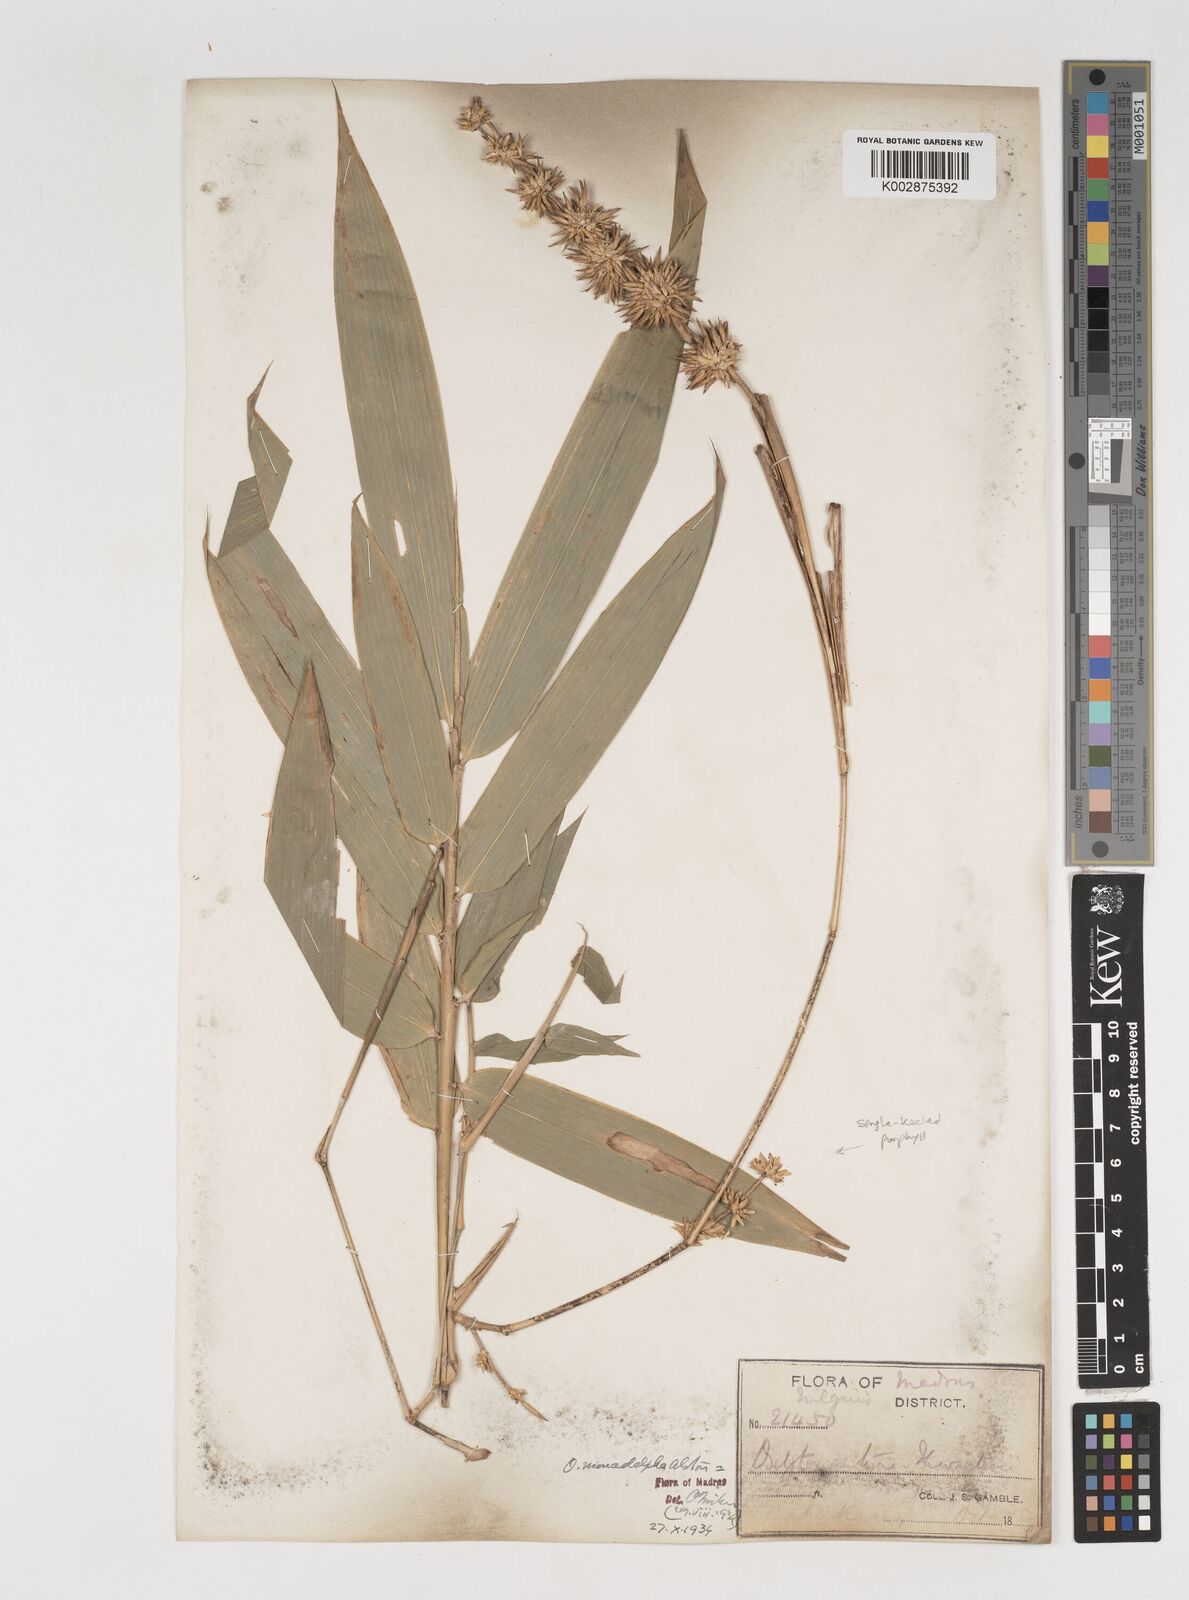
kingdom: Plantae
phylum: Tracheophyta
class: Liliopsida
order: Poales
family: Poaceae
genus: Pseudoxytenanthera
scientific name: Pseudoxytenanthera monadelpha
